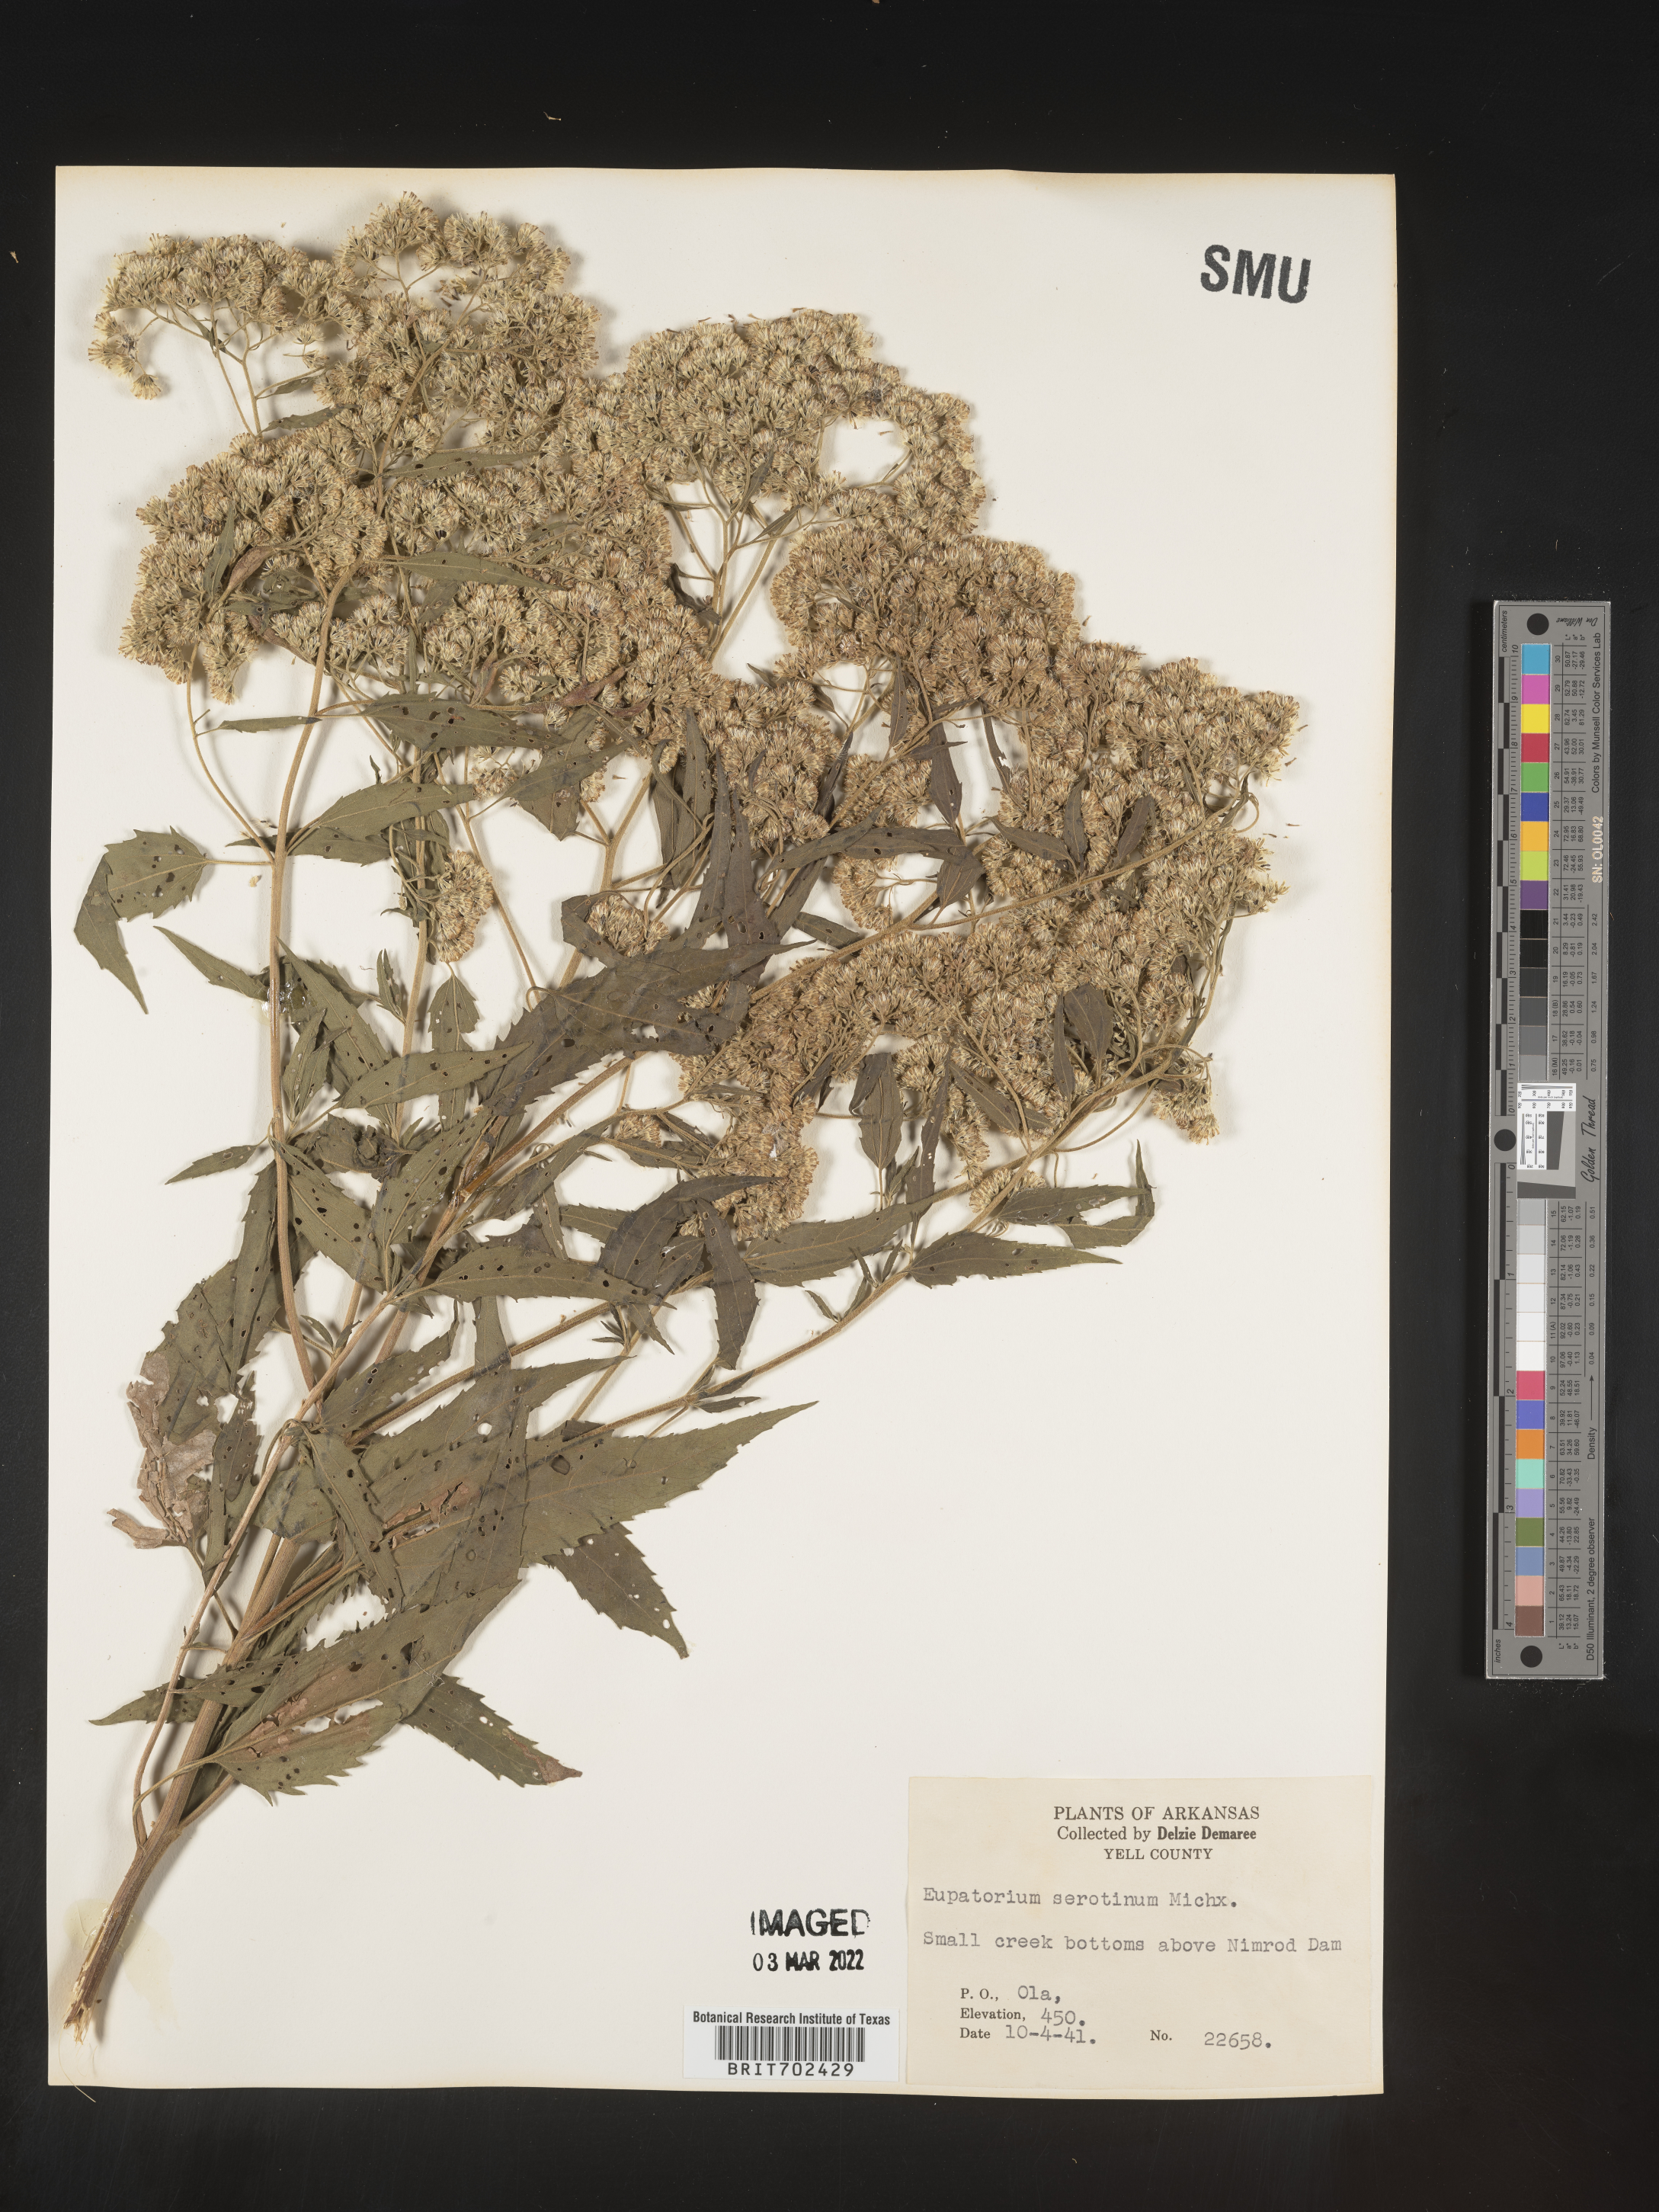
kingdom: Plantae
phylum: Tracheophyta
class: Magnoliopsida
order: Asterales
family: Asteraceae
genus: Eupatorium
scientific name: Eupatorium serotinum
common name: Late boneset
